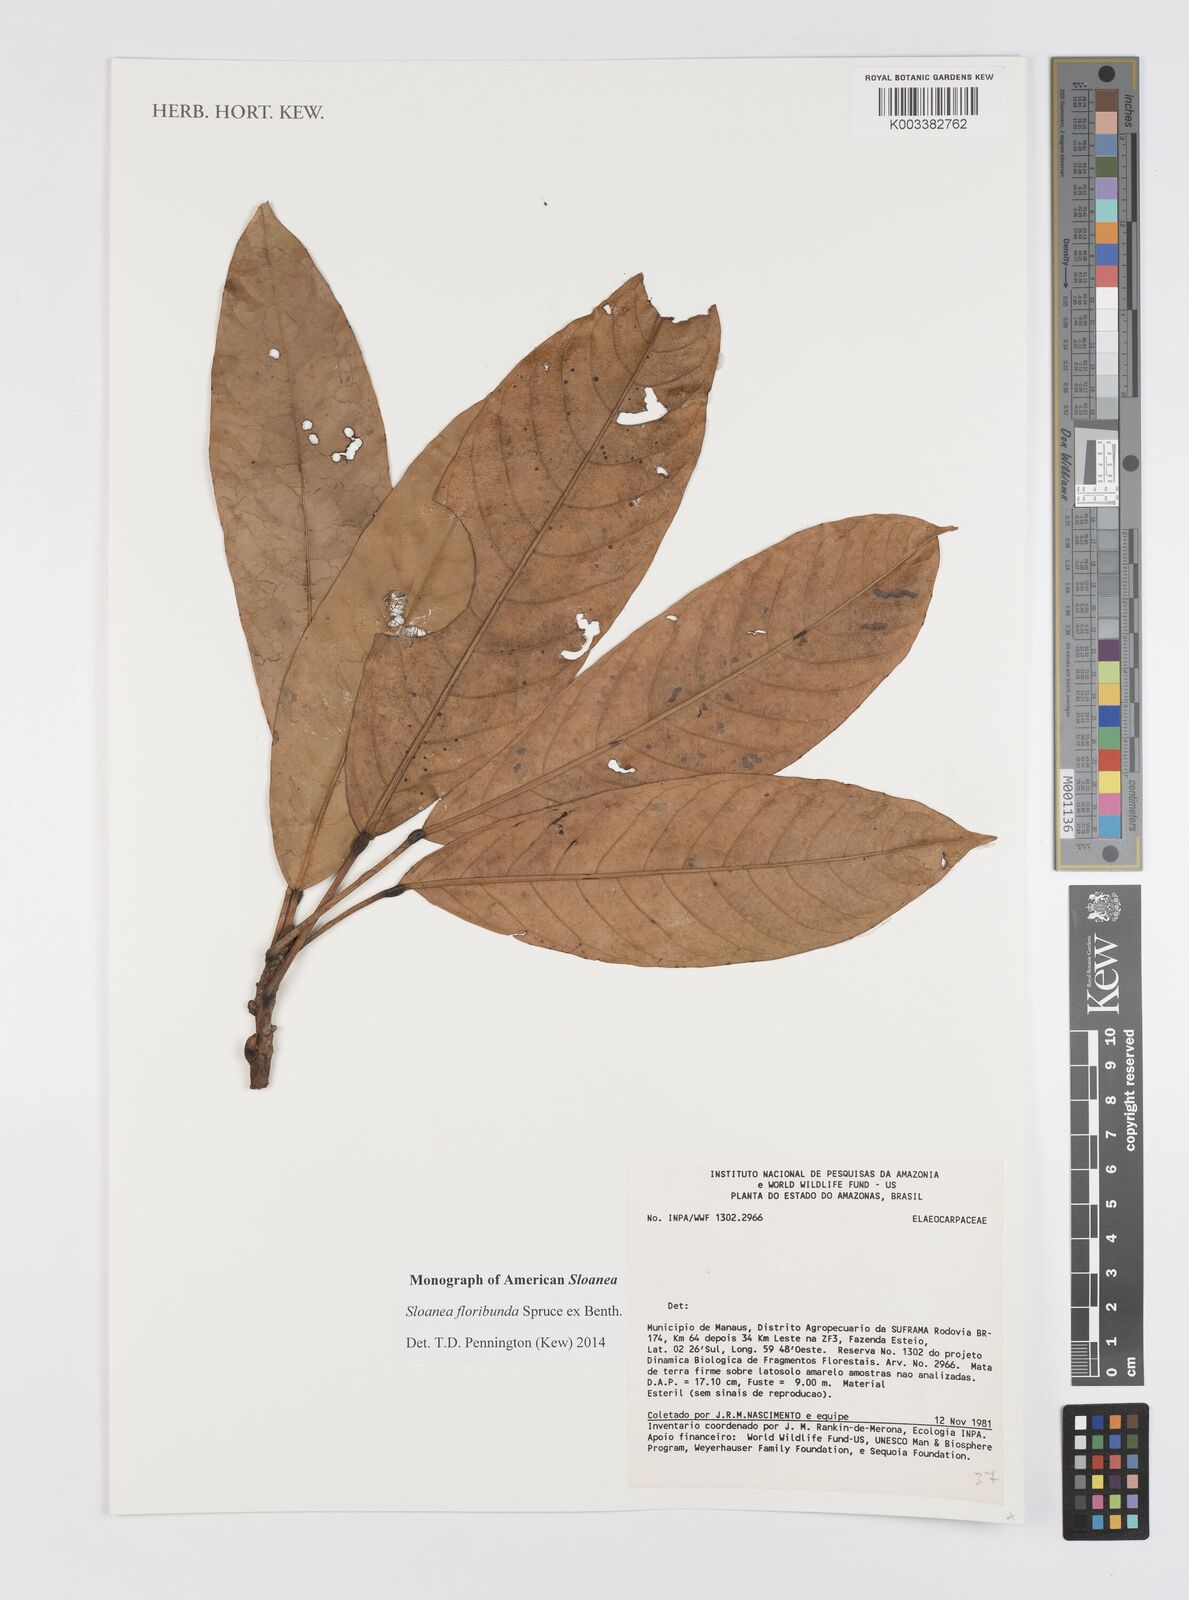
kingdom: Plantae
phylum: Tracheophyta
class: Magnoliopsida
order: Oxalidales
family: Elaeocarpaceae
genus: Sloanea
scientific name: Sloanea floribunda
